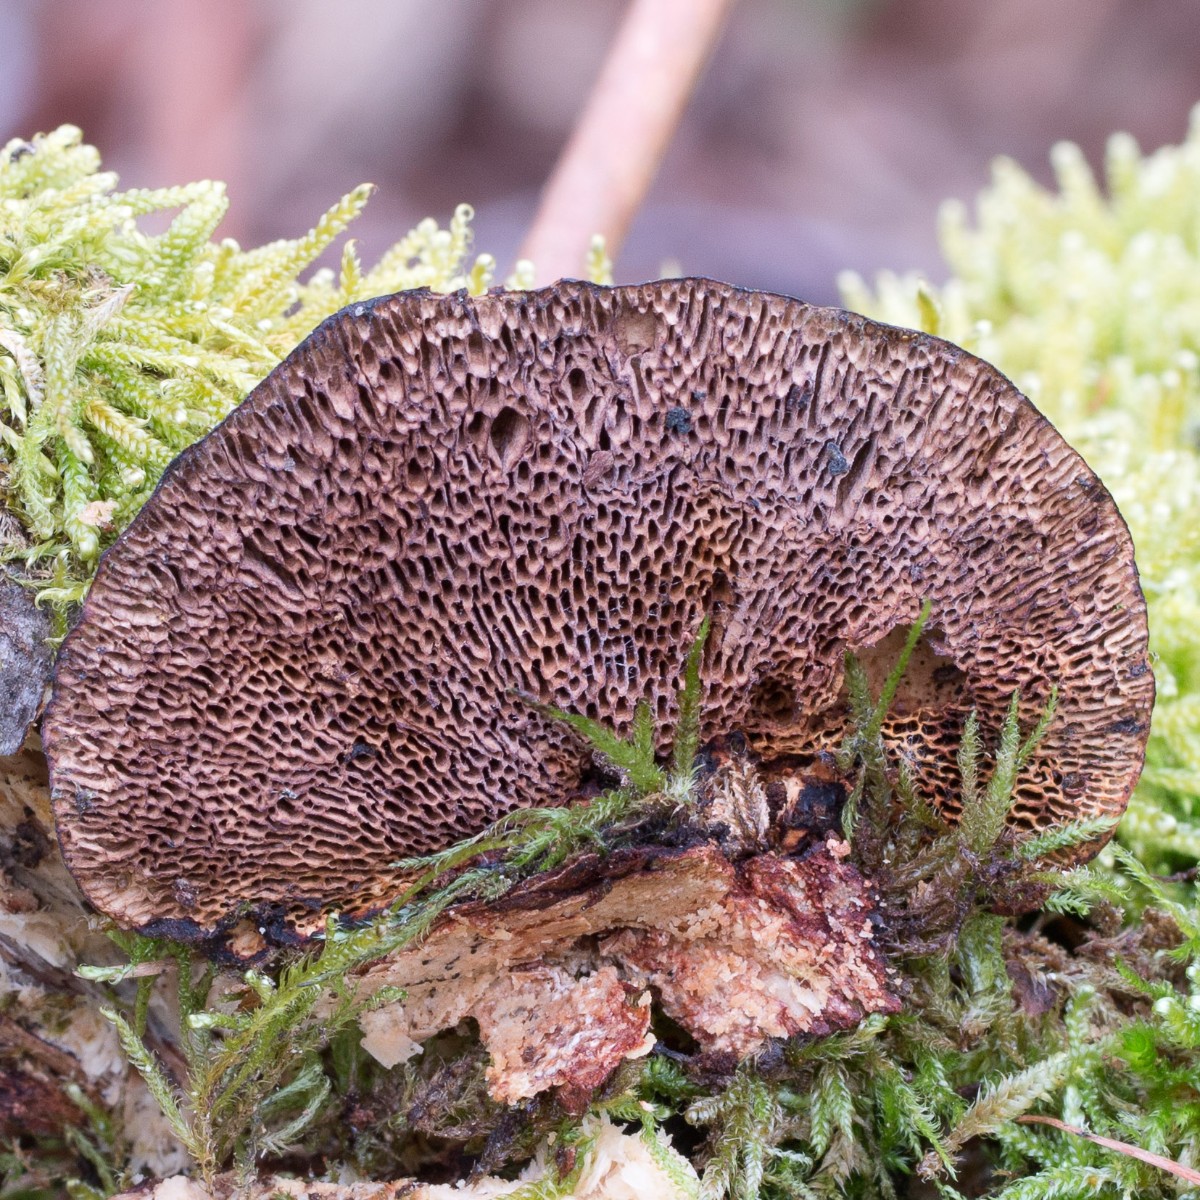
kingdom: Fungi
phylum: Basidiomycota
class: Agaricomycetes
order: Polyporales
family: Polyporaceae
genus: Daedaleopsis
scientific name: Daedaleopsis confragosa
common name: rødmende læderporesvamp
